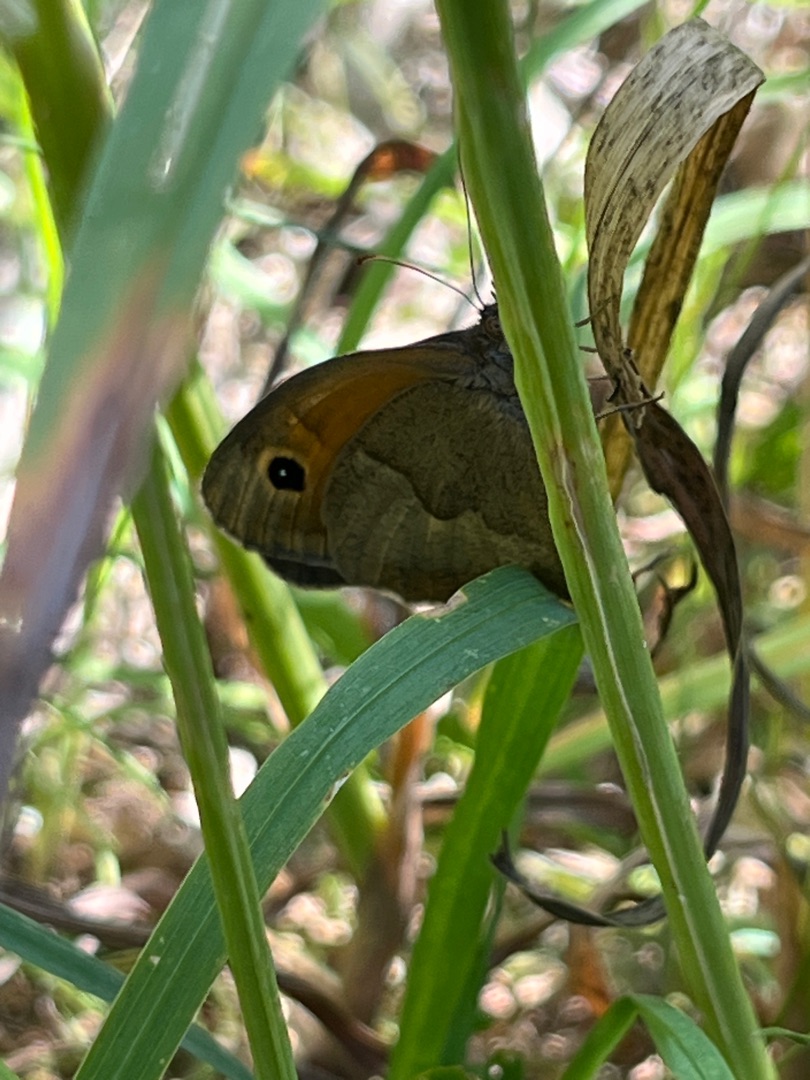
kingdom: Animalia
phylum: Arthropoda
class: Insecta
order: Lepidoptera
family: Nymphalidae
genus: Maniola
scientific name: Maniola jurtina
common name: Græsrandøje
